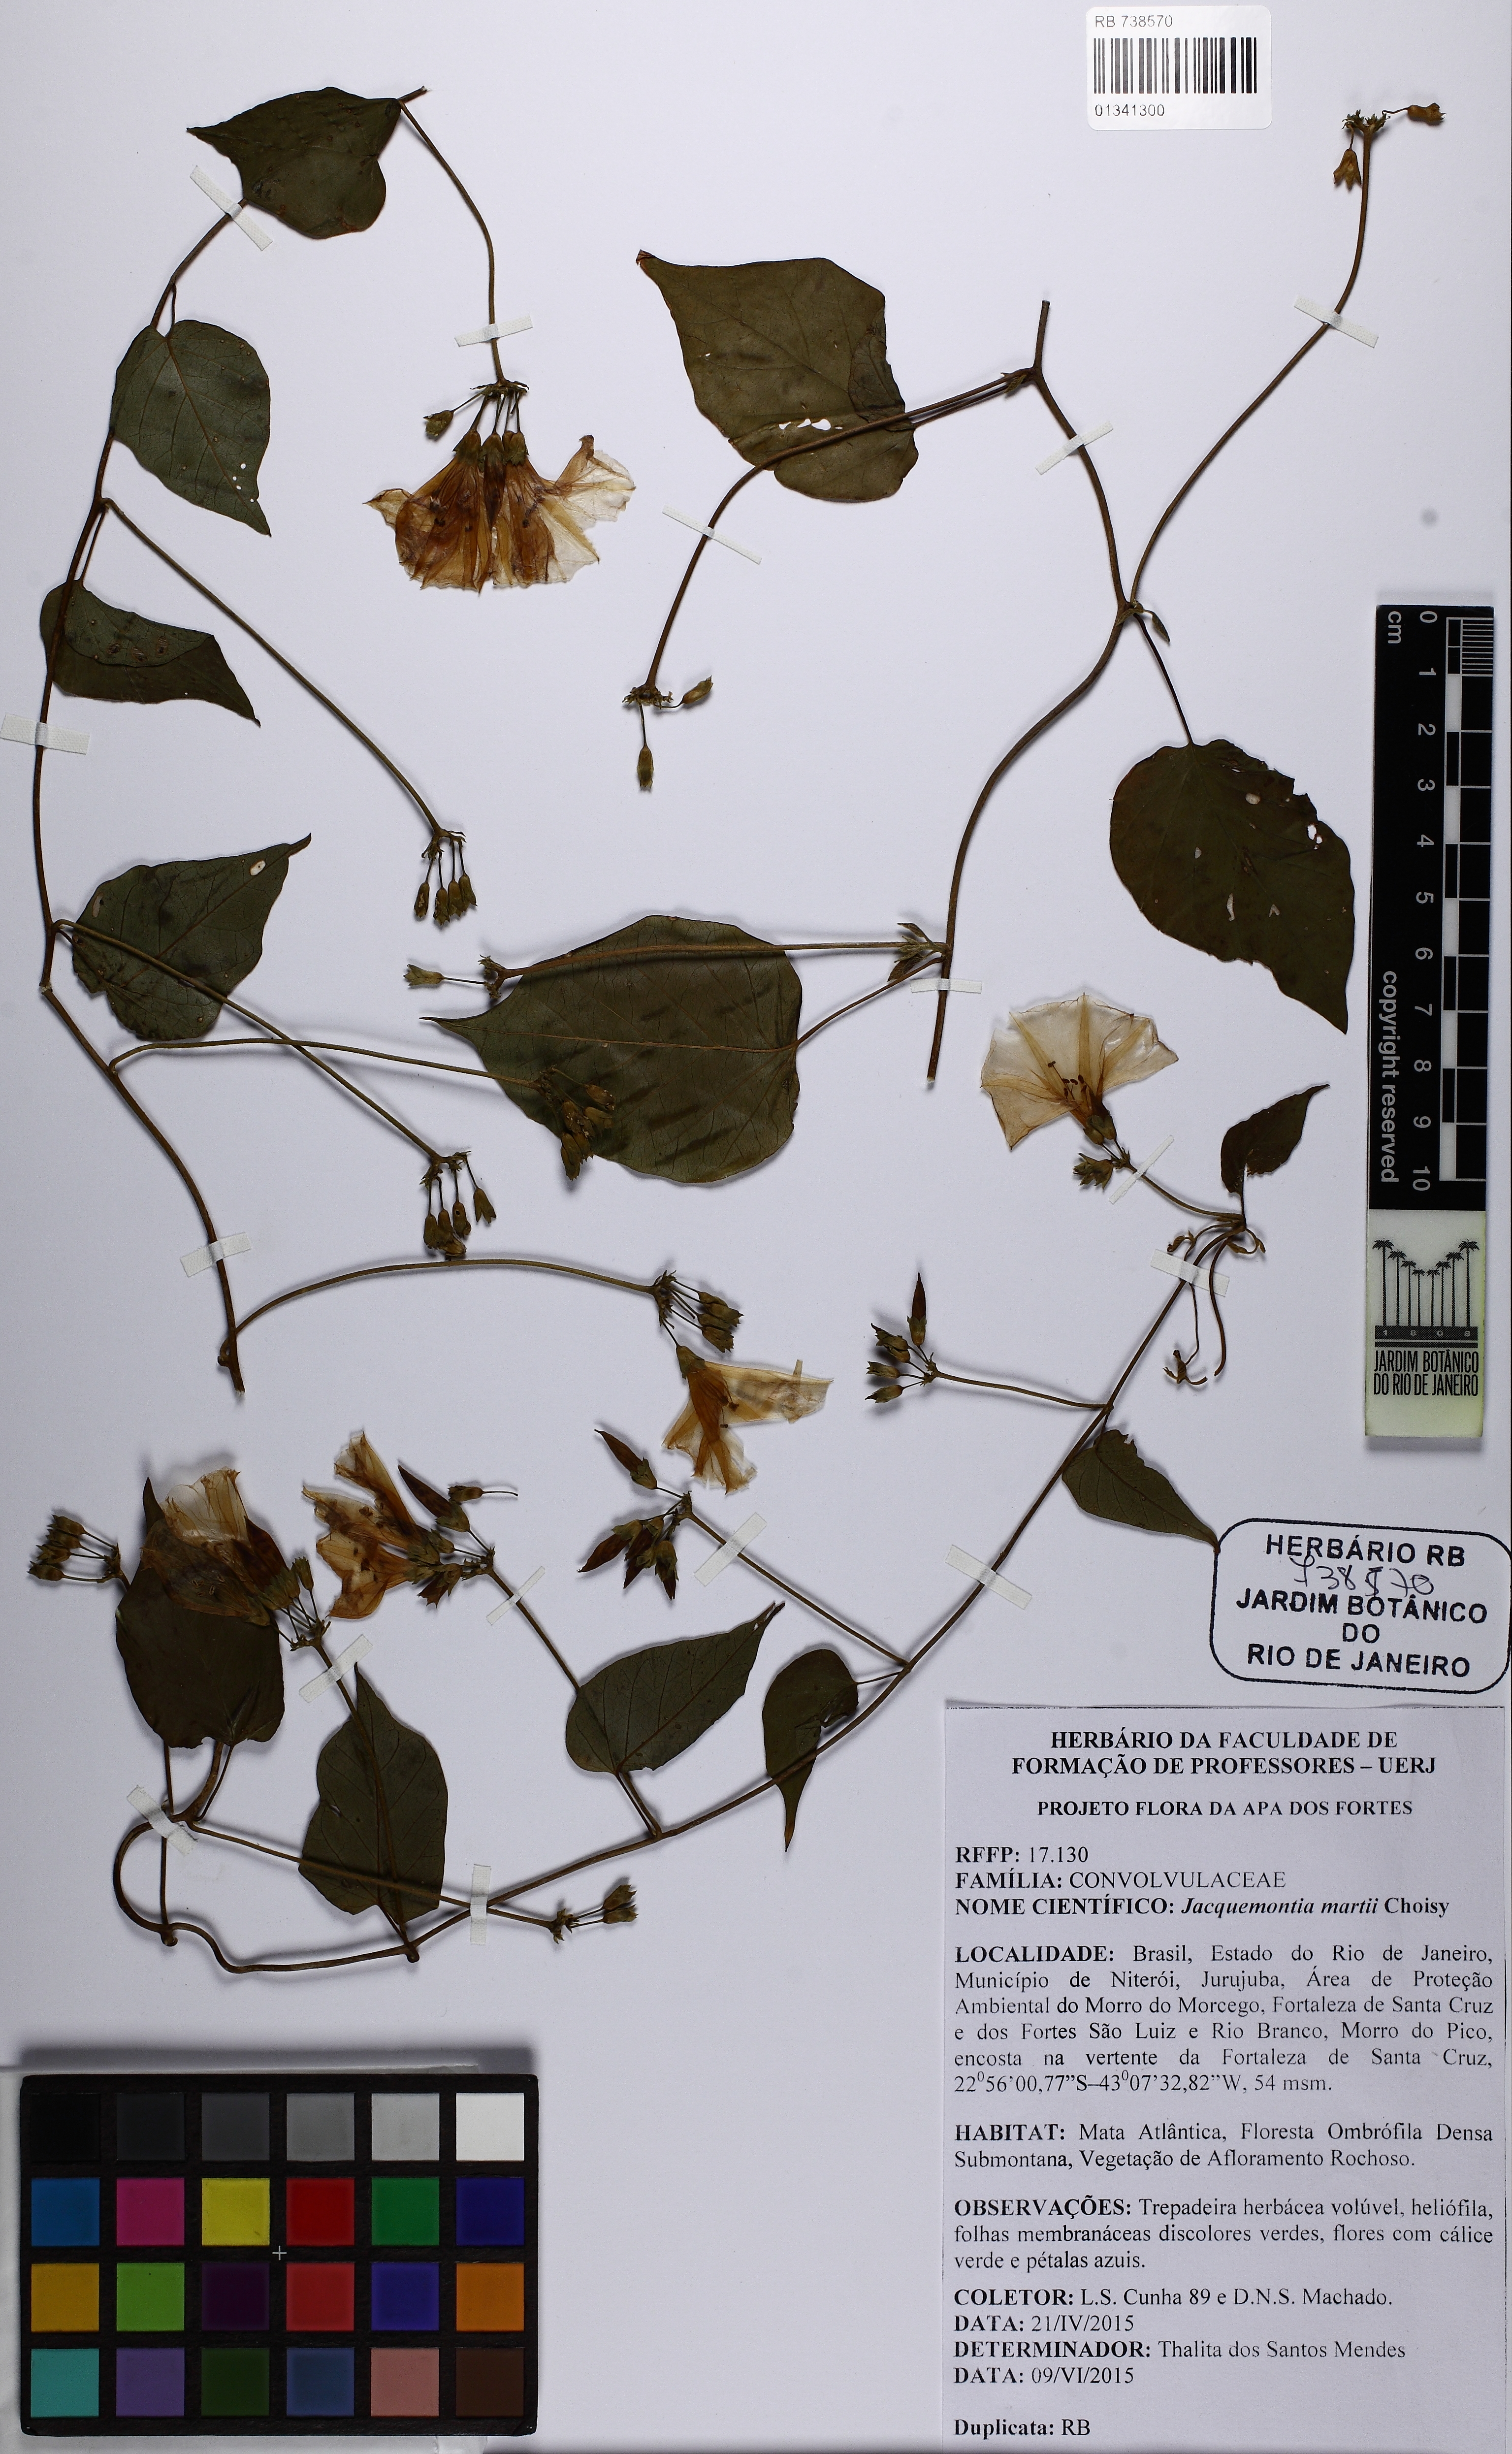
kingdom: Plantae
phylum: Tracheophyta
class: Magnoliopsida
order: Solanales
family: Convolvulaceae
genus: Jacquemontia
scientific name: Jacquemontia blanchetii
